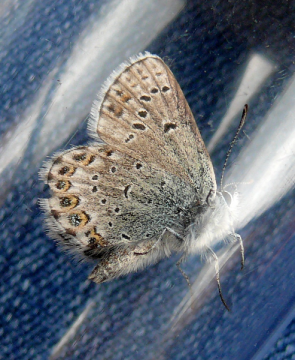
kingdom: Animalia
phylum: Arthropoda
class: Insecta
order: Lepidoptera
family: Lycaenidae
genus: Lycaeides
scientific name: Lycaeides idas
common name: Northern Blue
